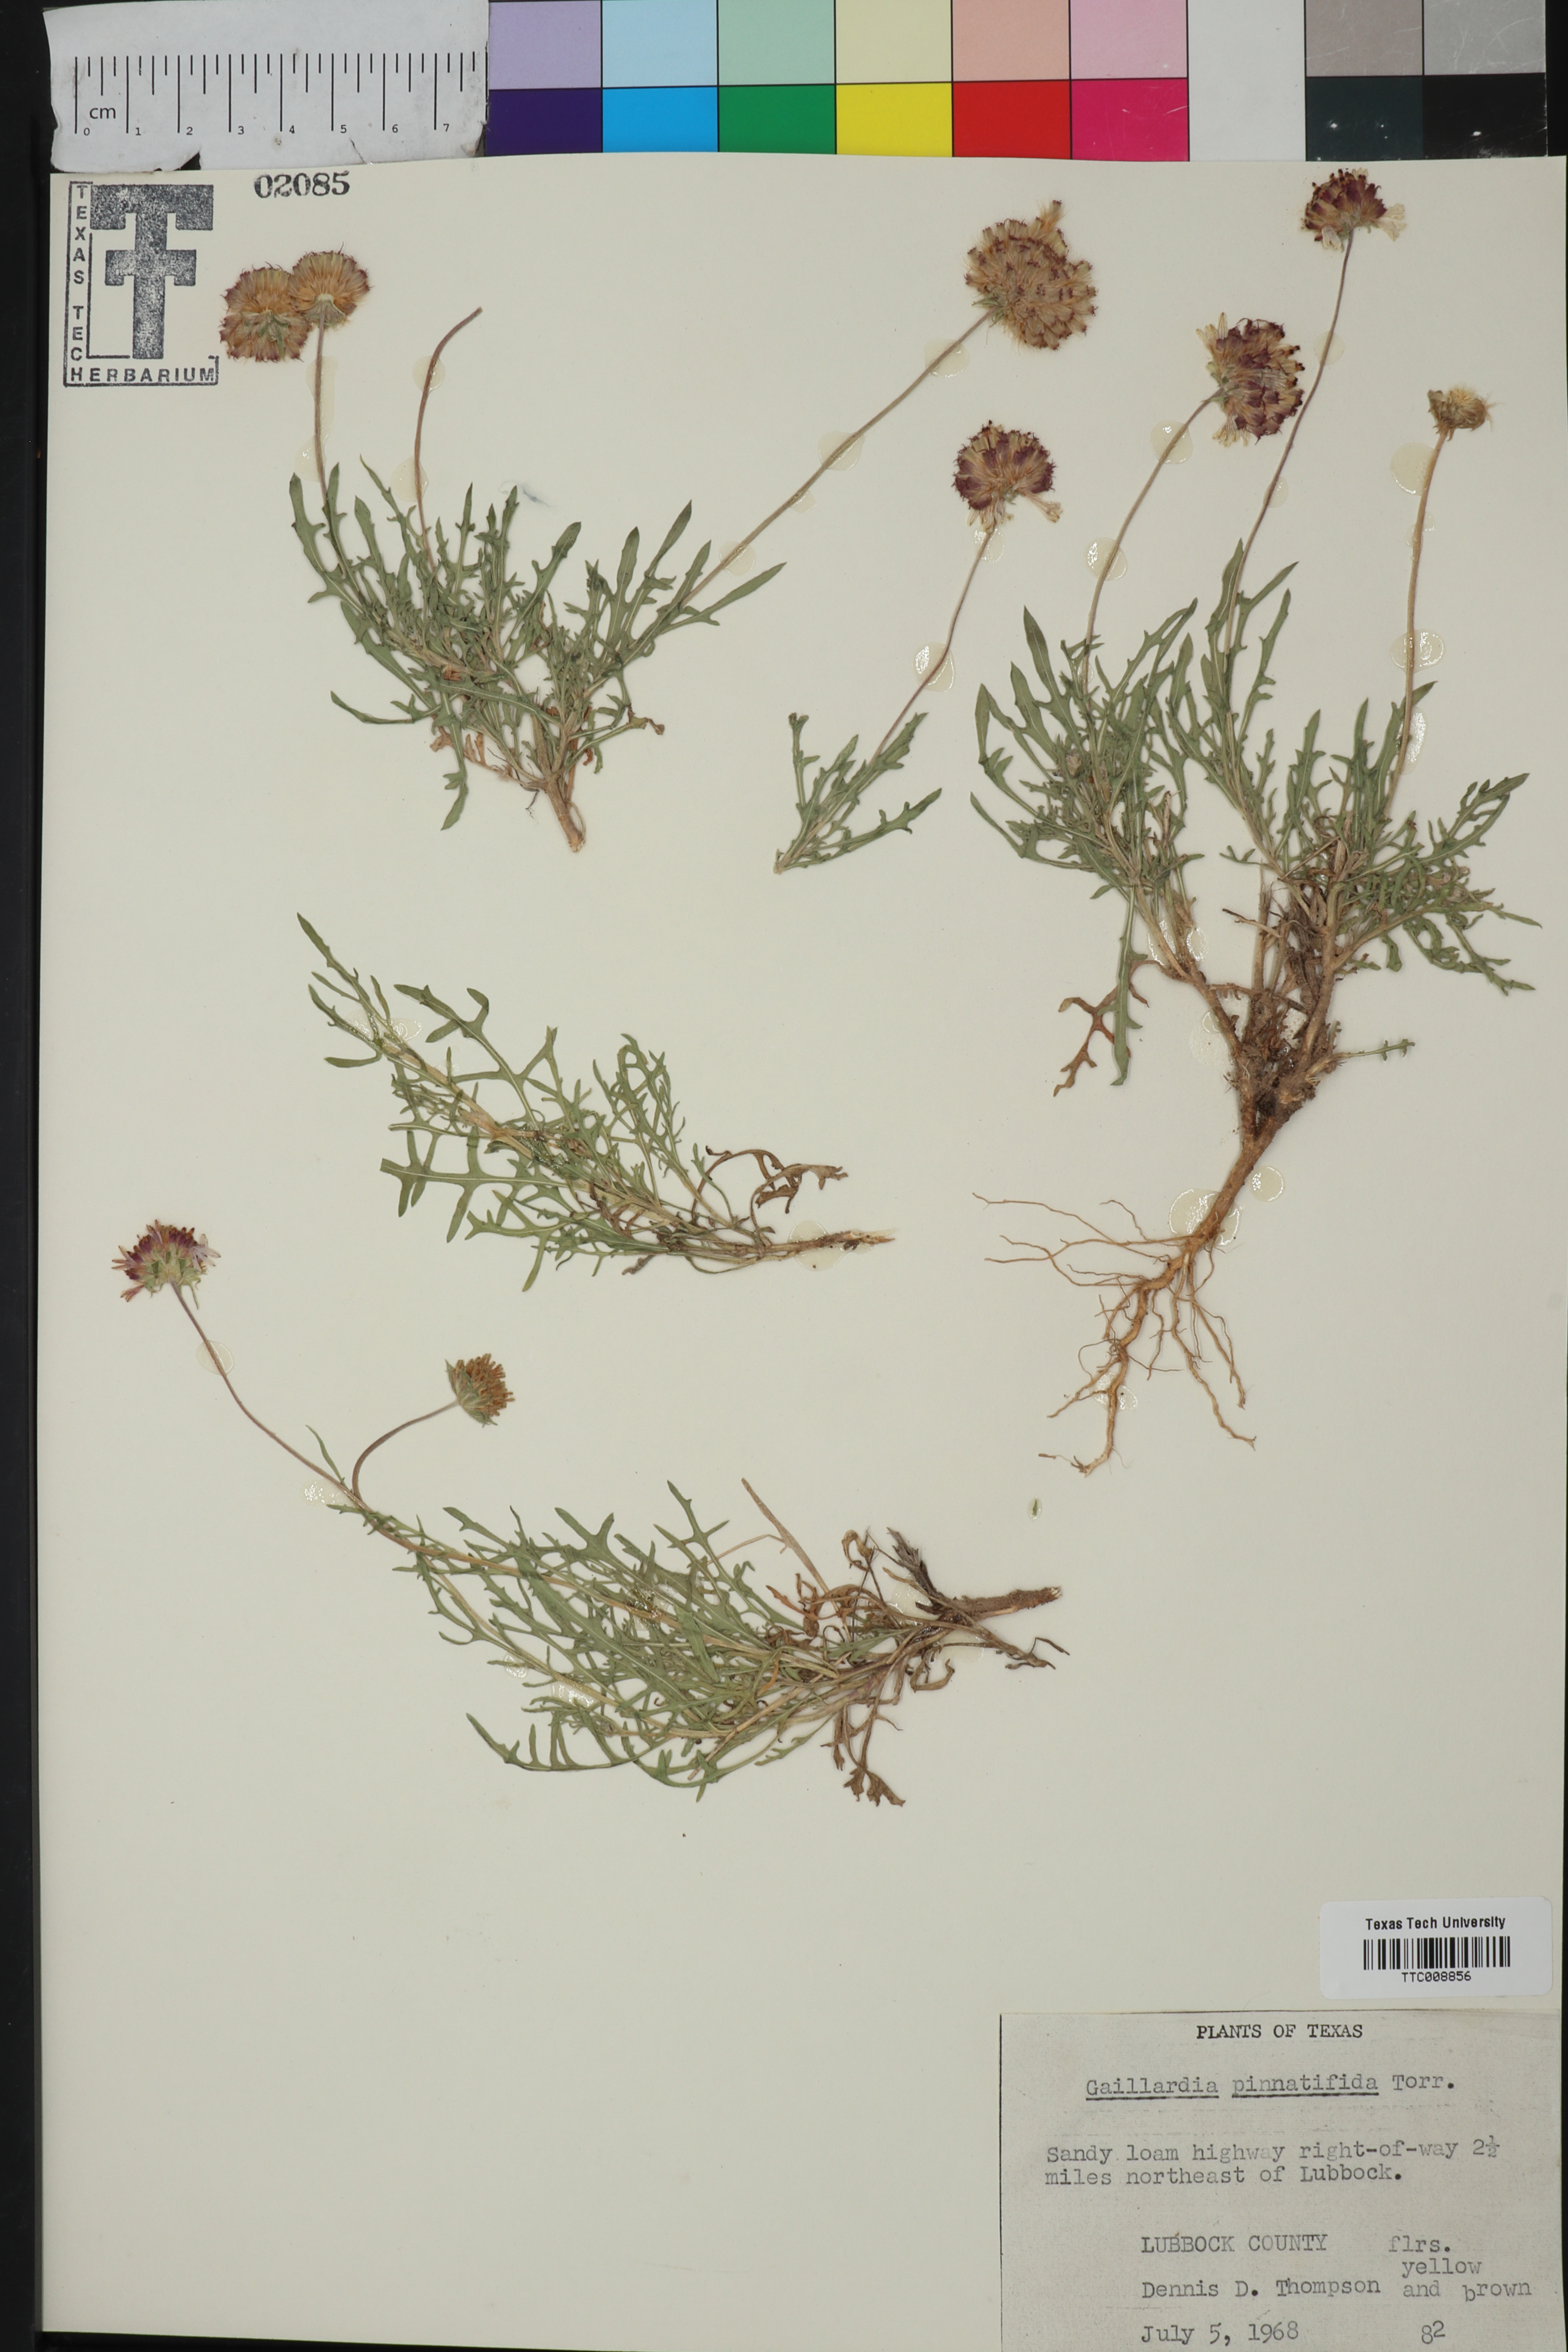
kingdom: Plantae
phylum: Tracheophyta
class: Magnoliopsida
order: Asterales
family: Asteraceae
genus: Gaillardia
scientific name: Gaillardia pinnatifida
